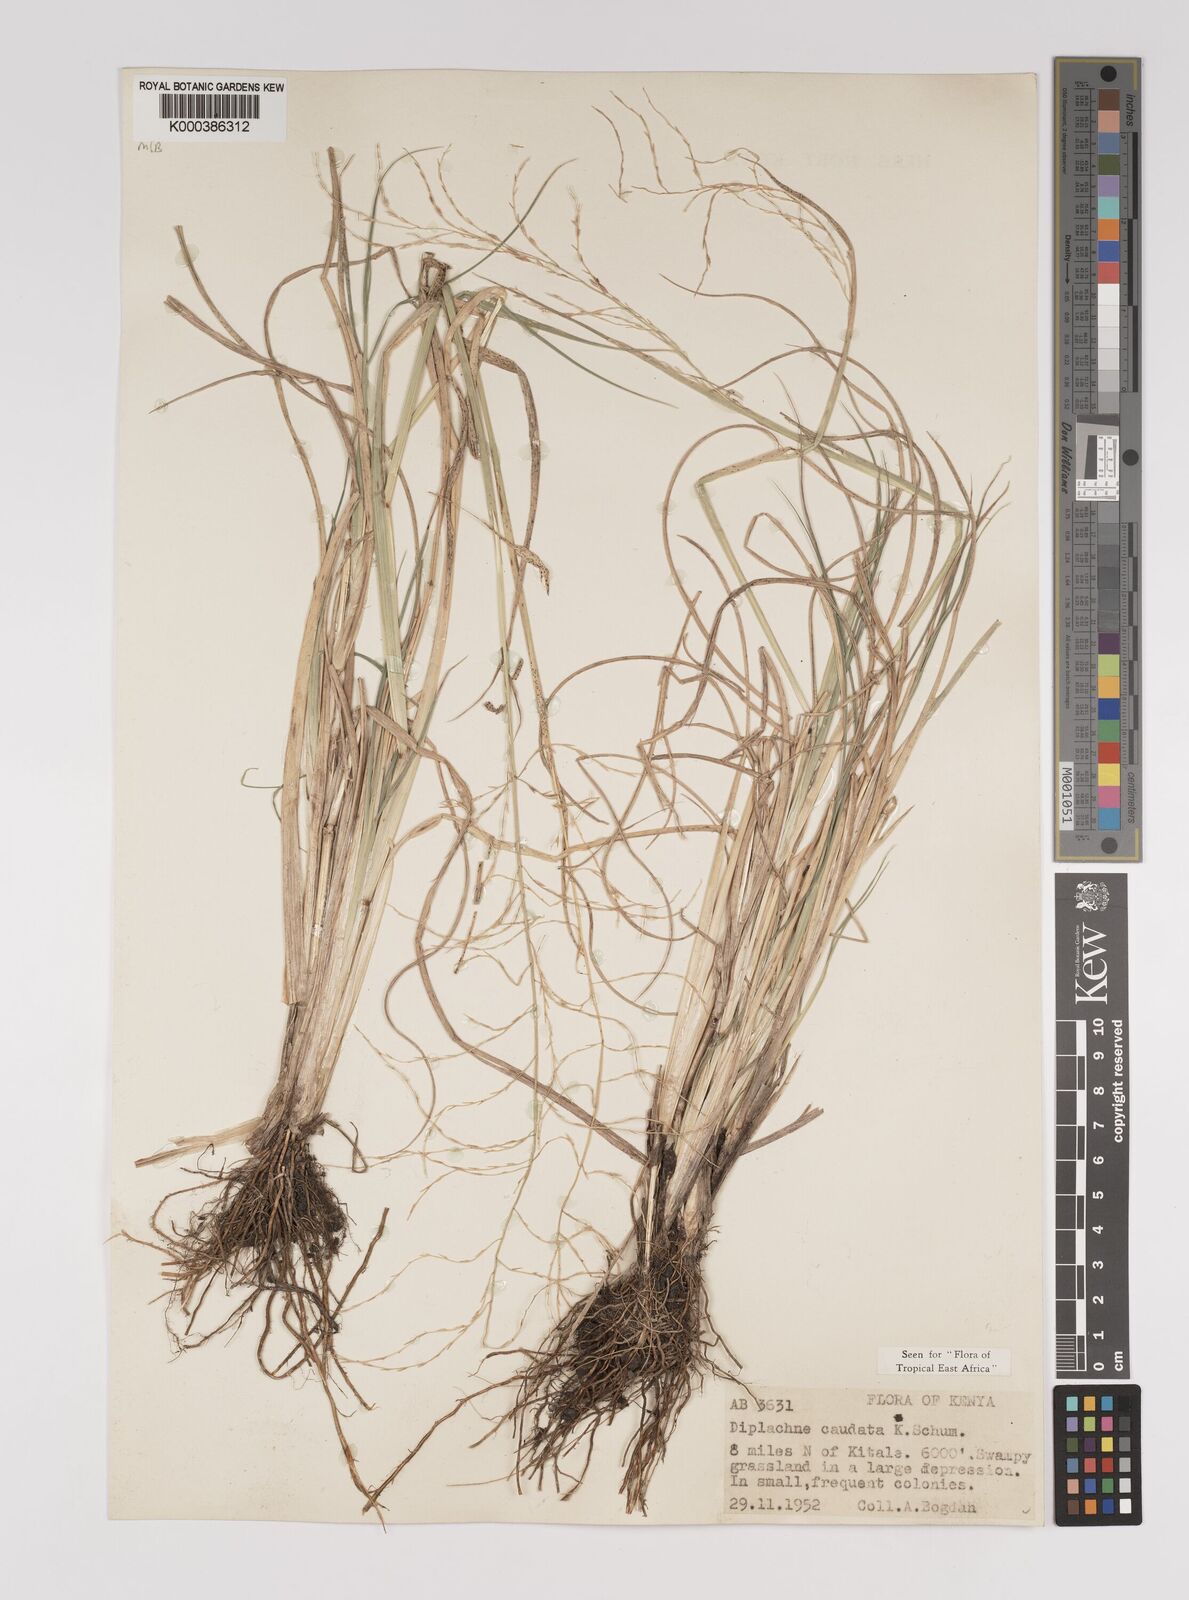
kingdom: Plantae
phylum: Tracheophyta
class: Liliopsida
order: Poales
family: Poaceae
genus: Leptochloa
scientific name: Leptochloa caudata
